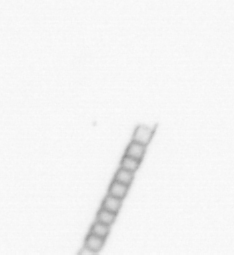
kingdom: Chromista
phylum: Ochrophyta
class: Bacillariophyceae
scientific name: Bacillariophyceae
